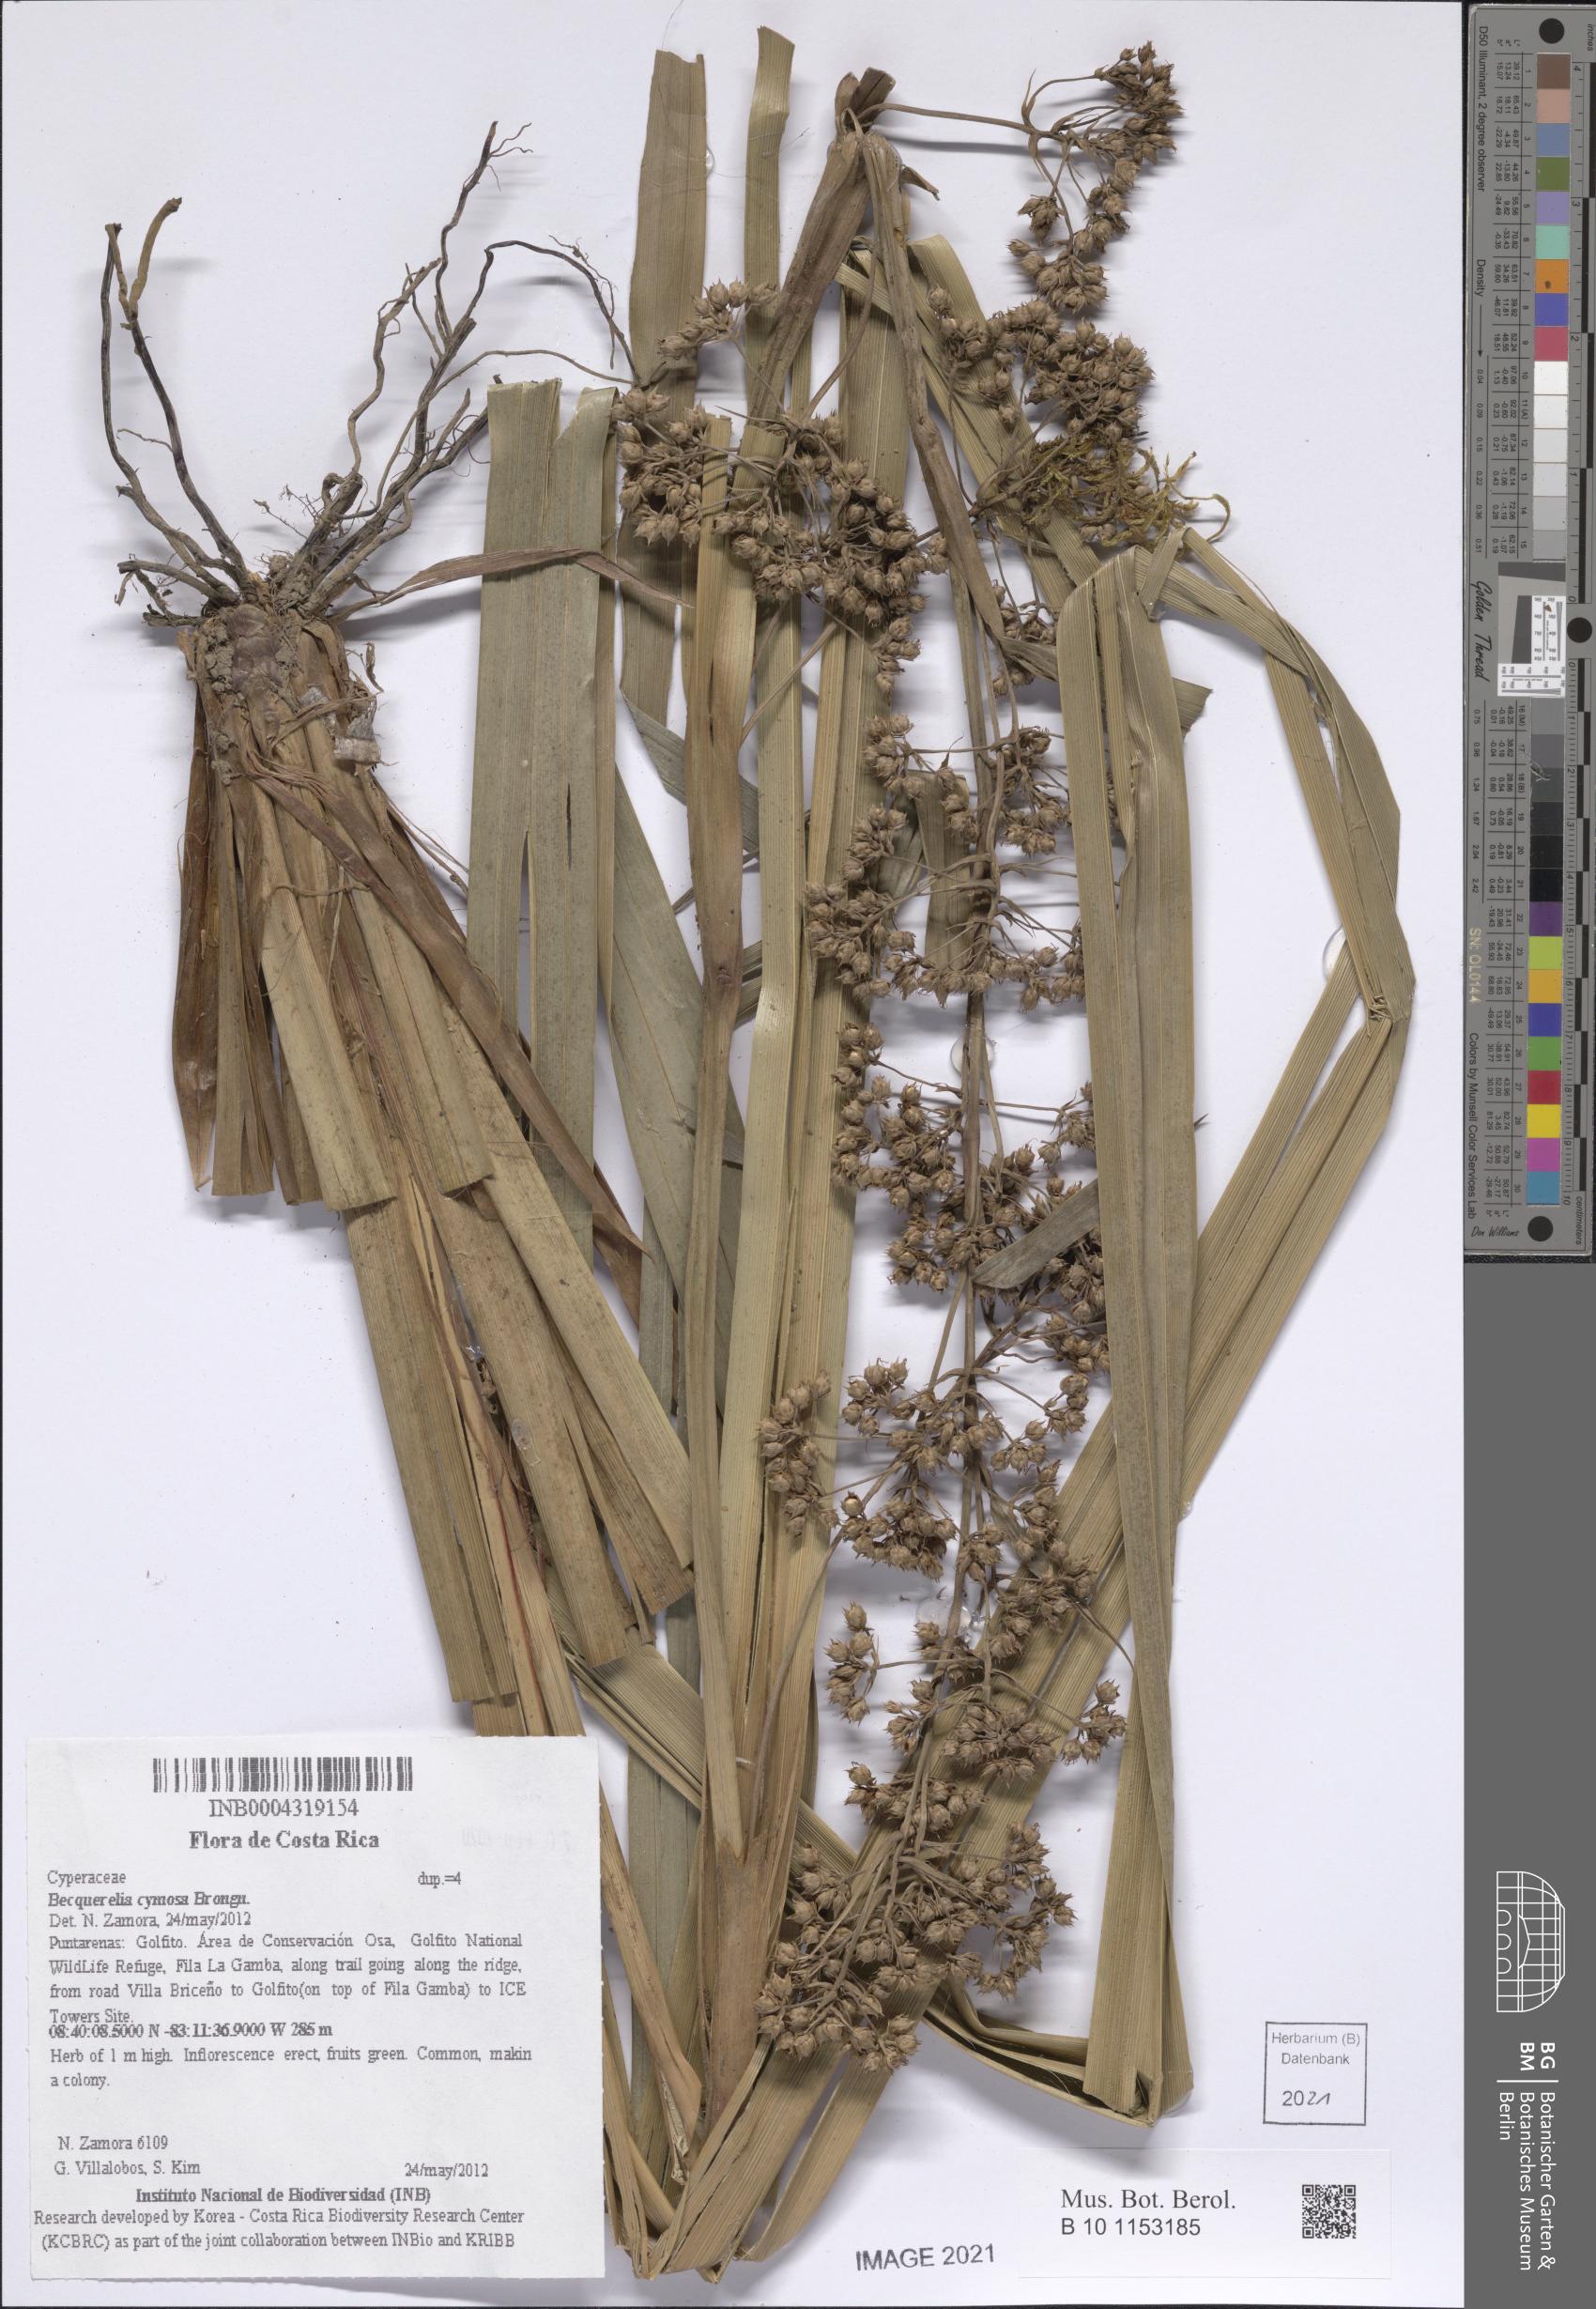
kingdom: Plantae
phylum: Tracheophyta
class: Liliopsida
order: Poales
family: Cyperaceae
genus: Becquerelia
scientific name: Becquerelia cymosa
